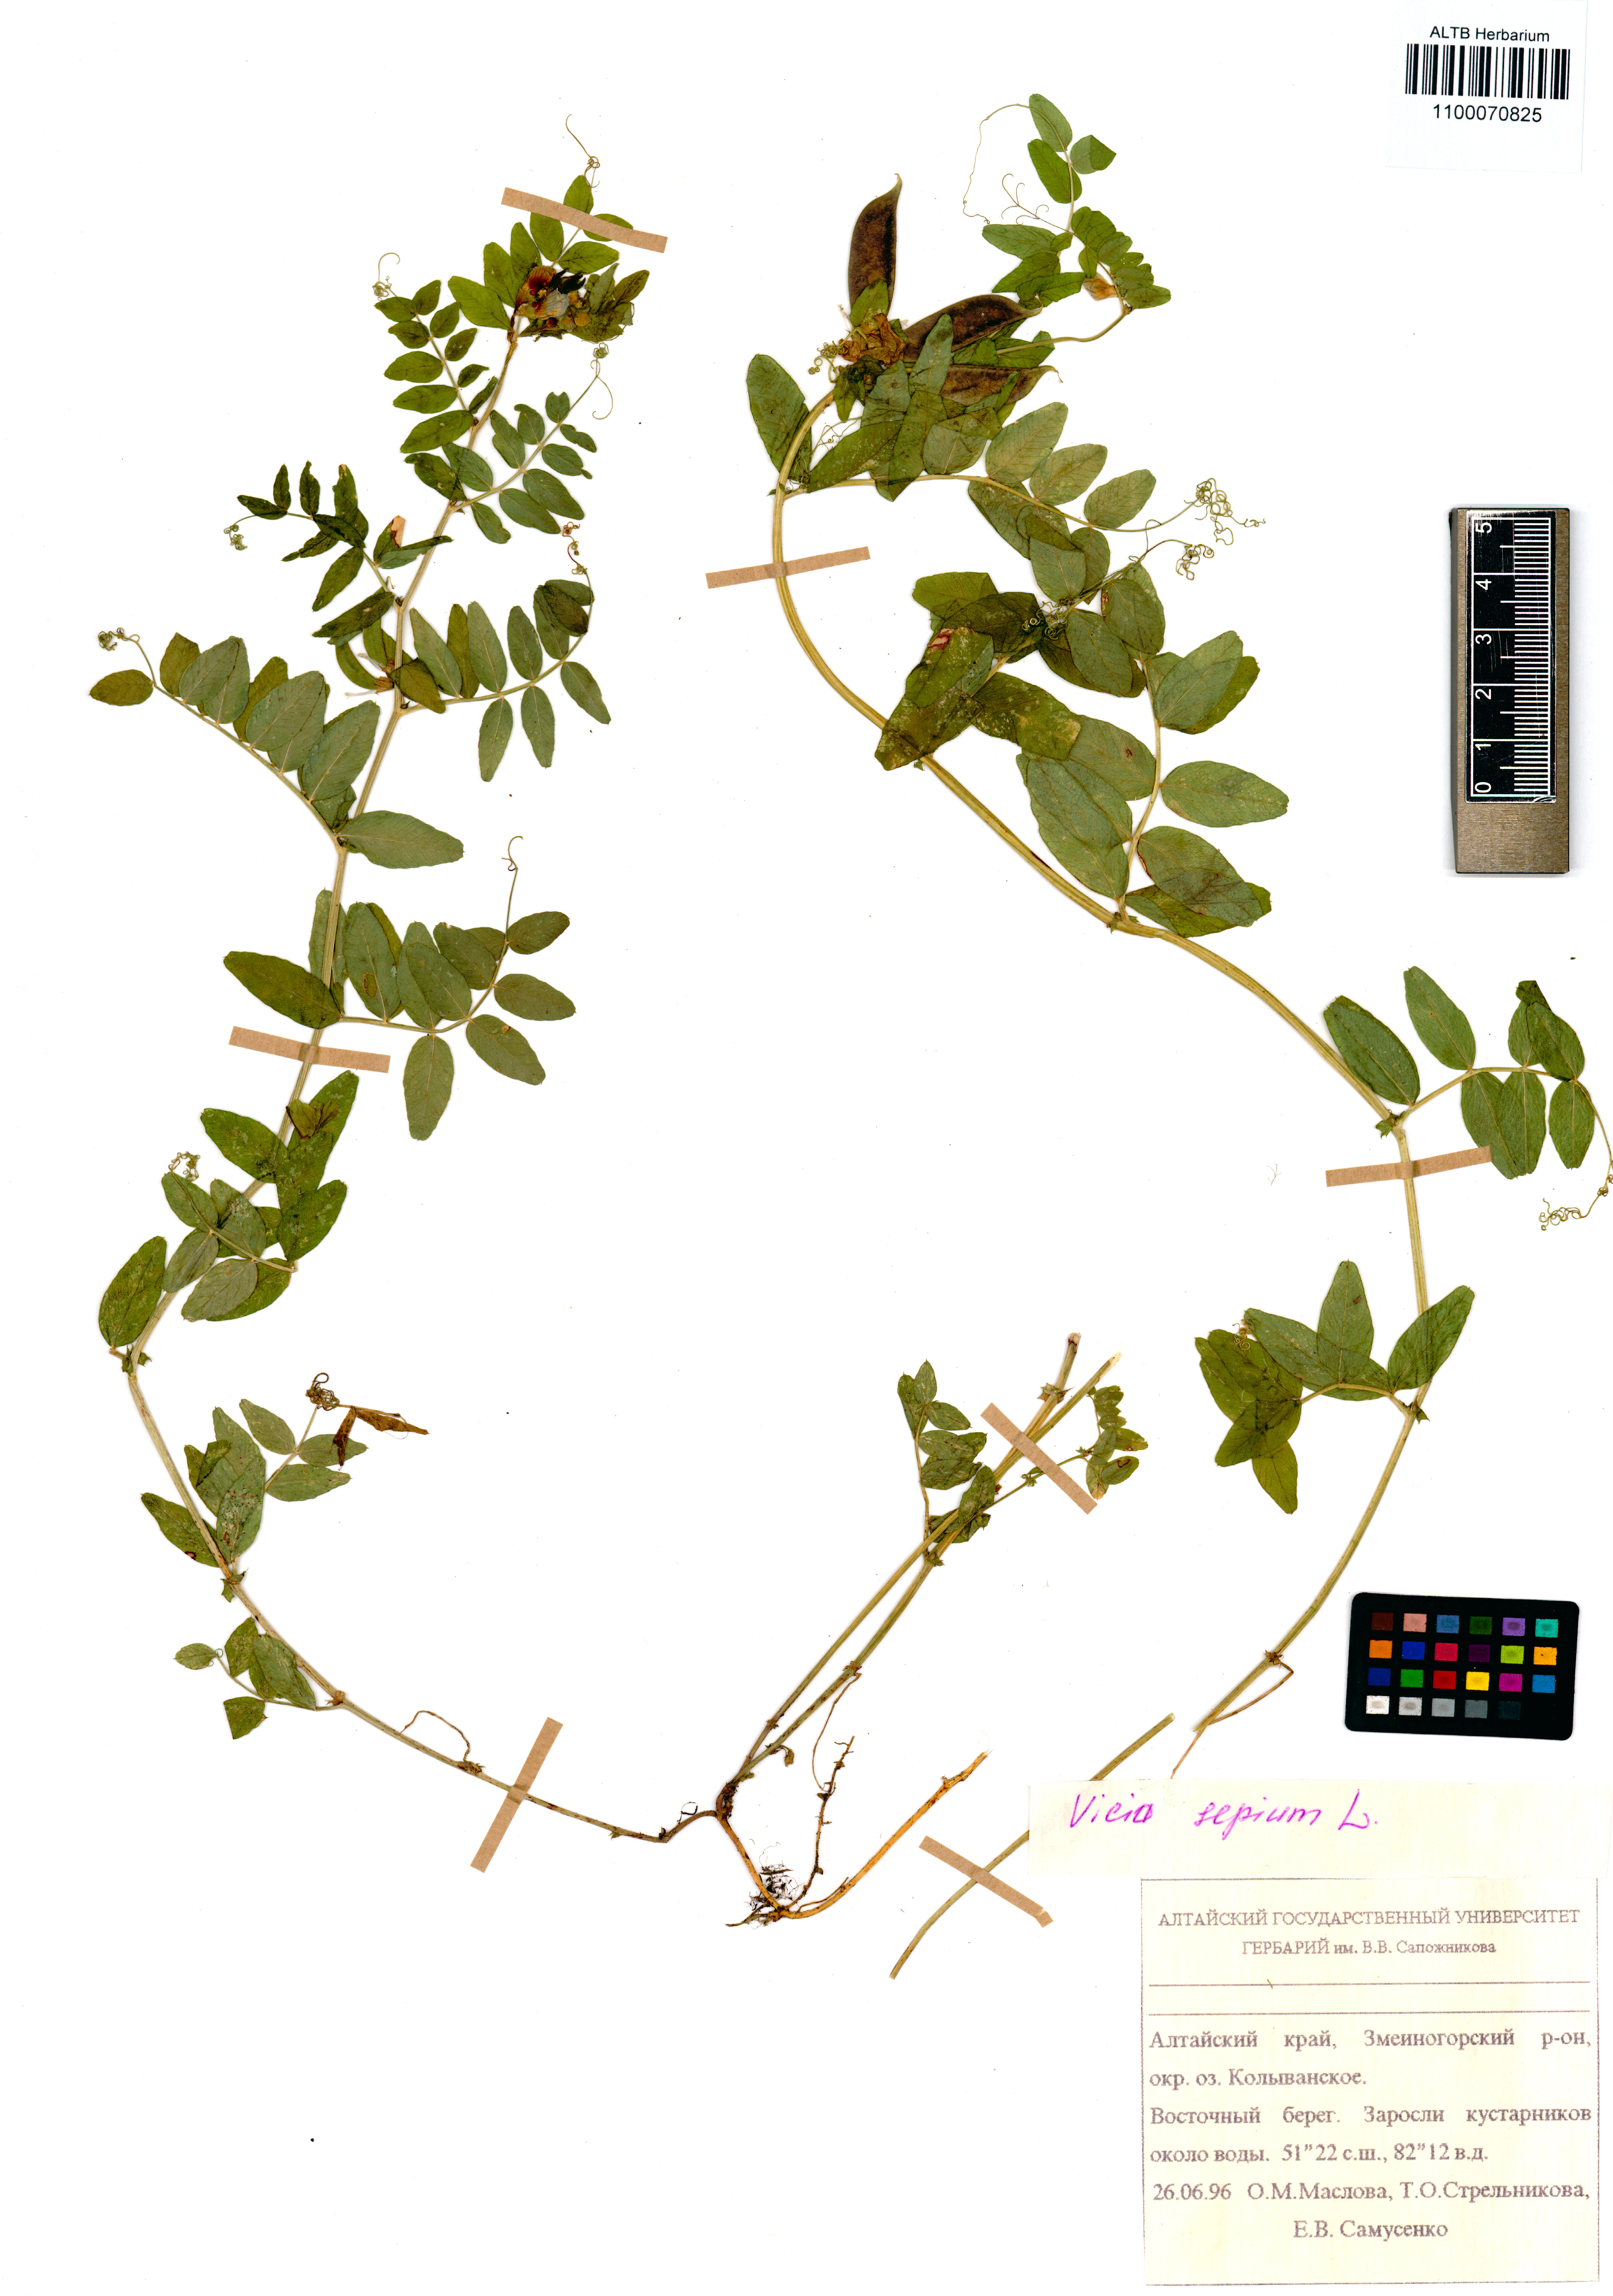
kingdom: Plantae
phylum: Tracheophyta
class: Magnoliopsida
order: Fabales
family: Fabaceae
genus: Vicia
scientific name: Vicia sepium
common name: Bush vetch
